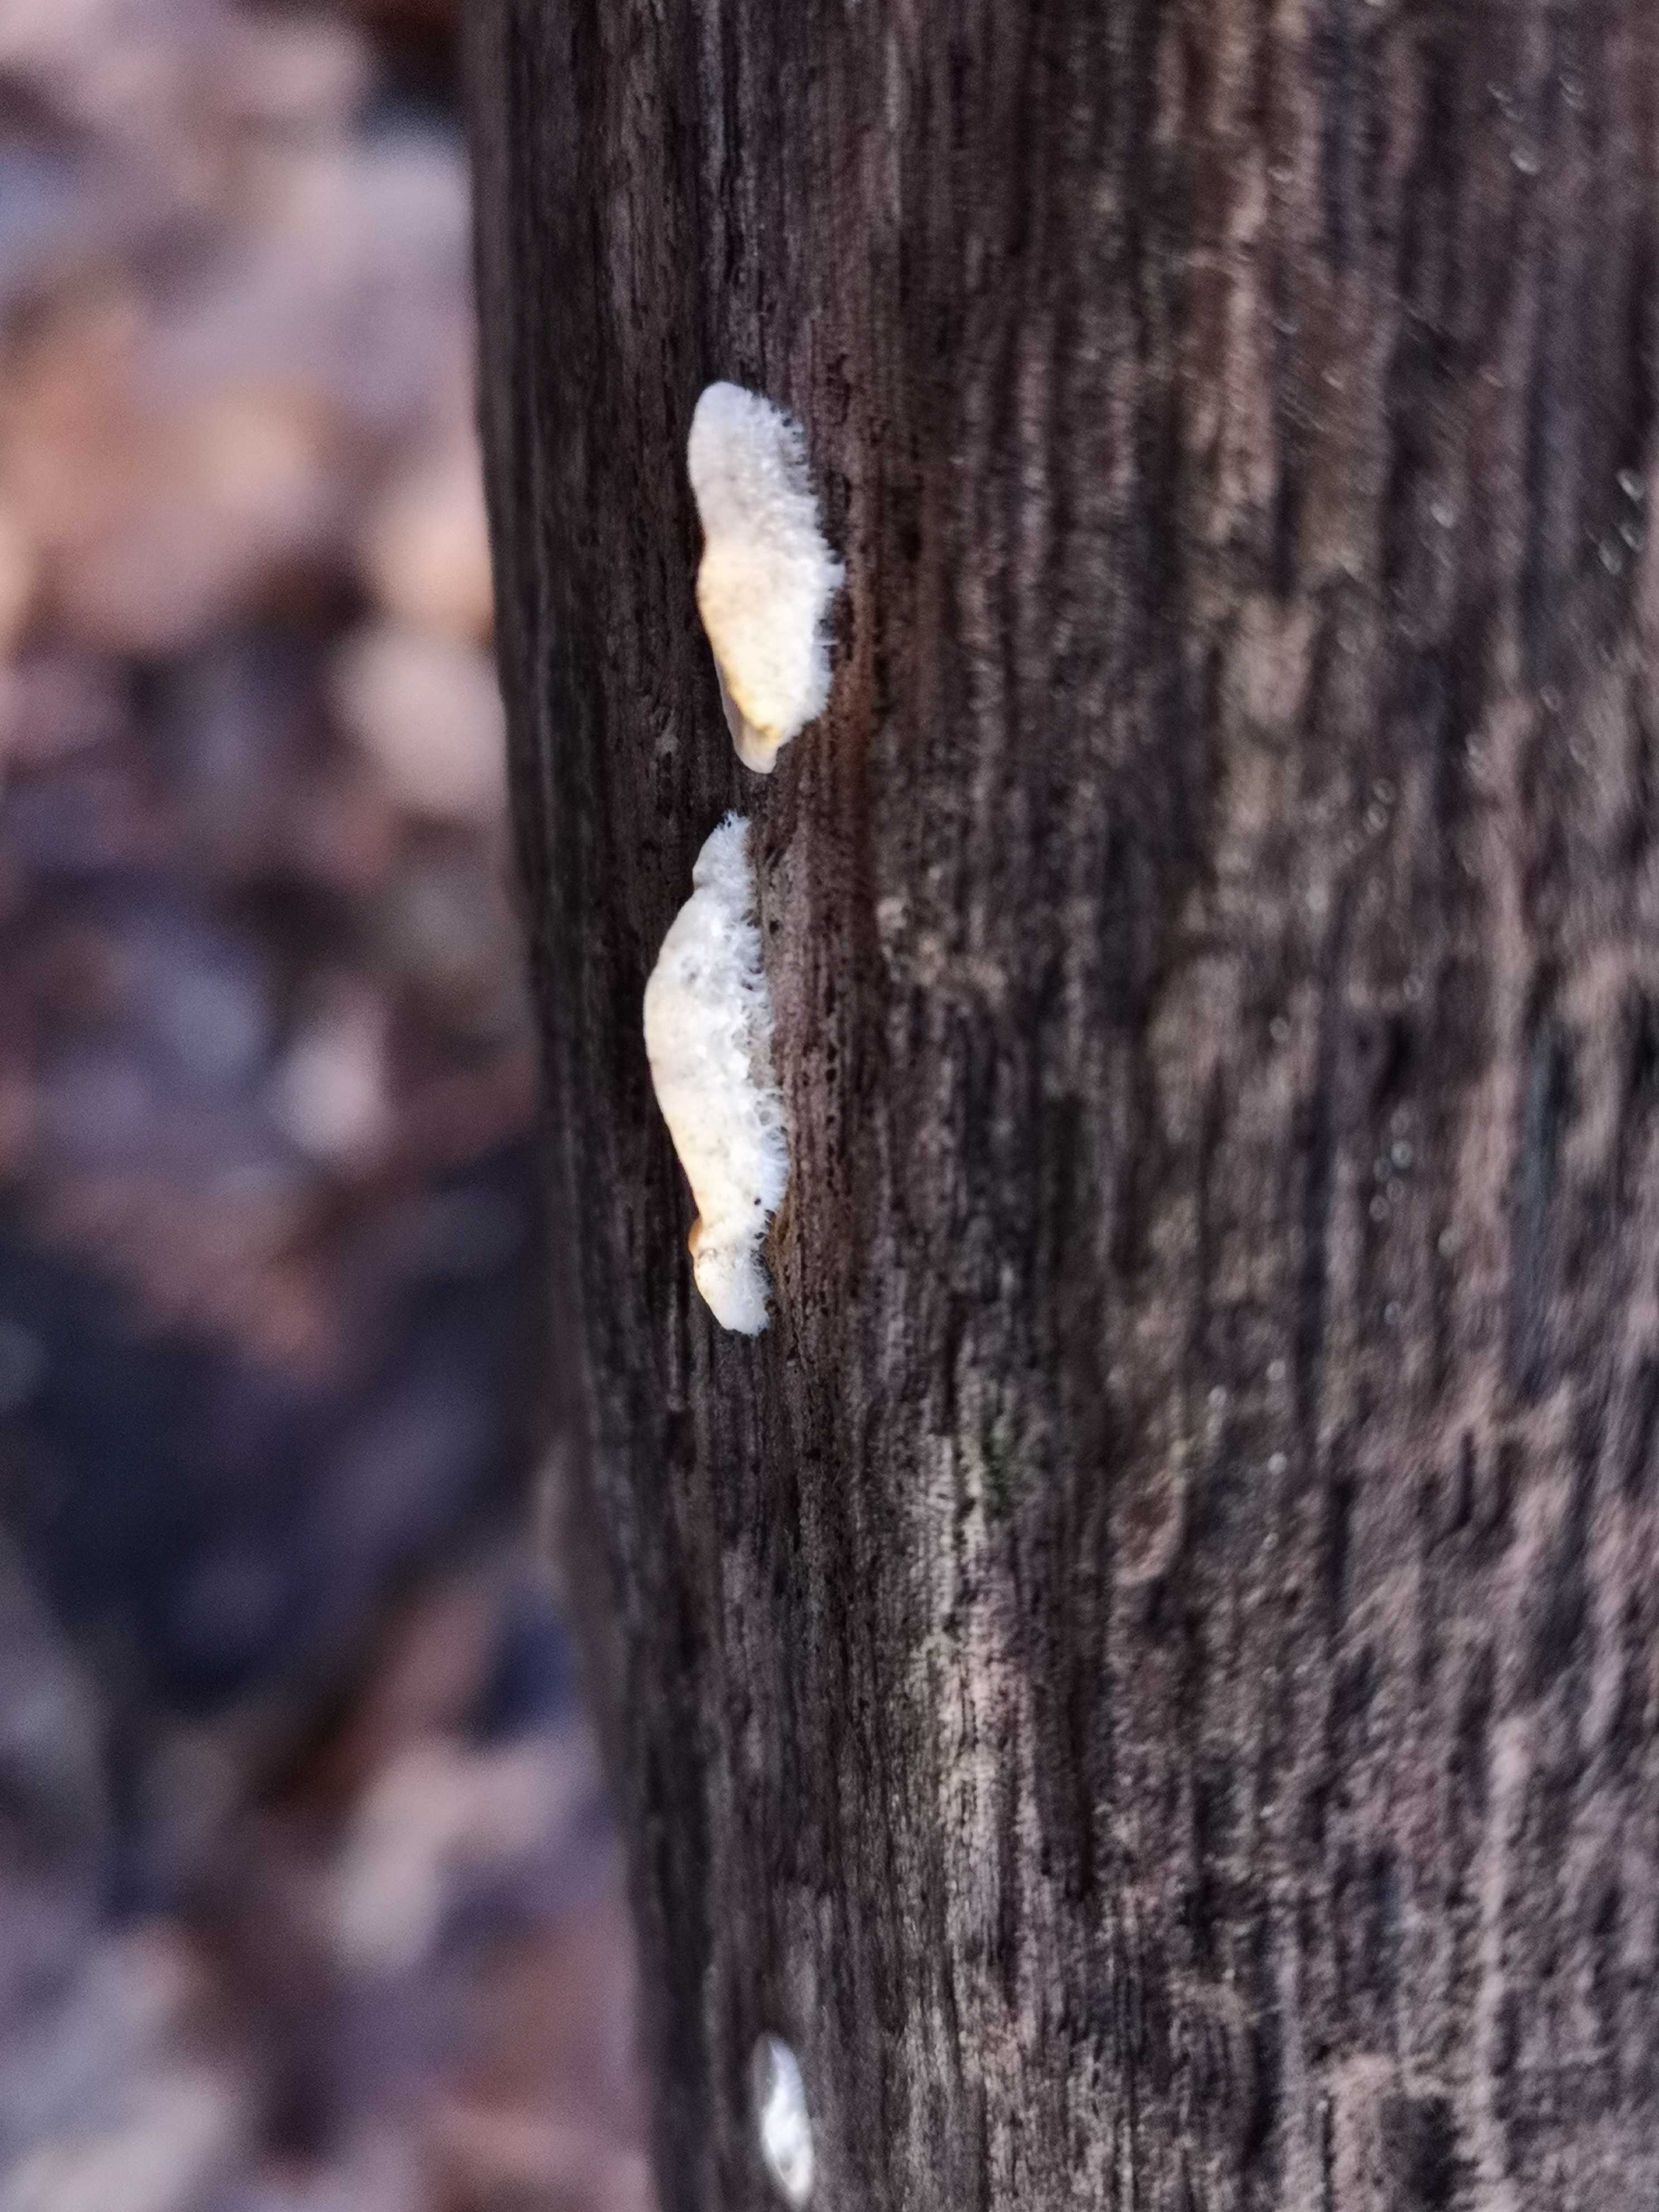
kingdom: Fungi
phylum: Basidiomycota
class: Agaricomycetes
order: Russulales
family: Stereaceae
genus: Stereum
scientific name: Stereum hirsutum
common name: håret lædersvamp
